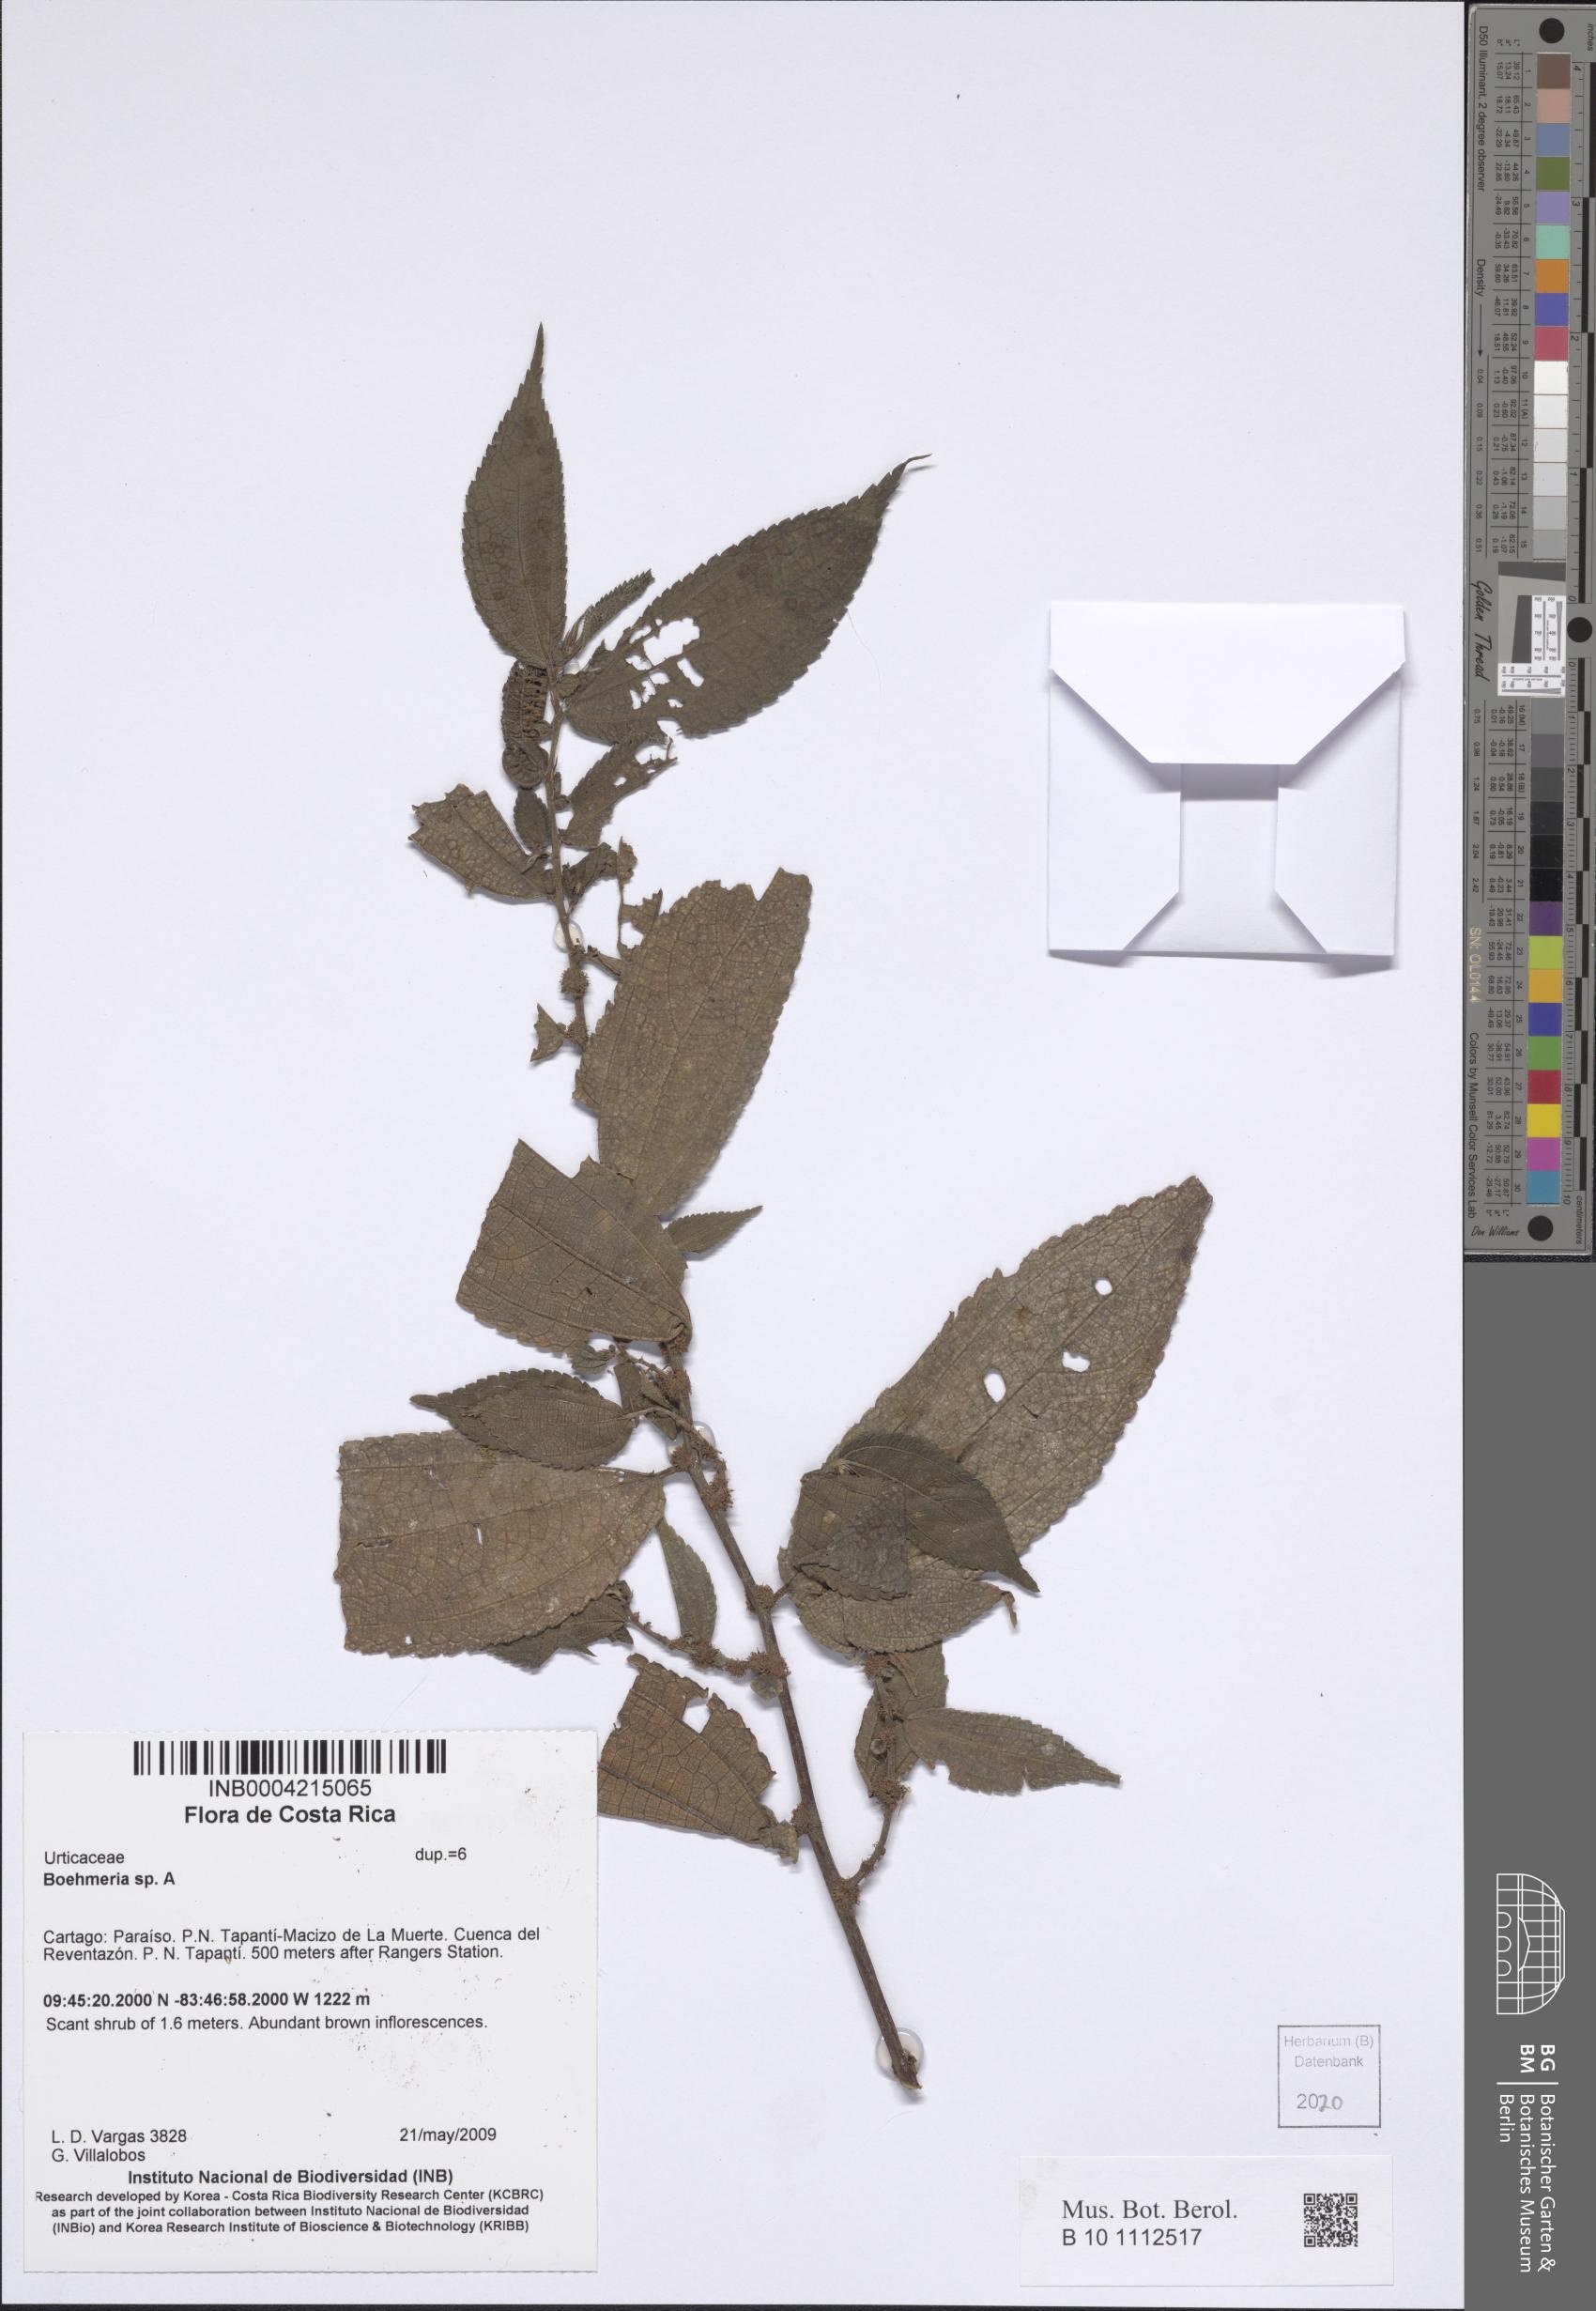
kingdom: Plantae
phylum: Tracheophyta
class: Magnoliopsida
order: Rosales
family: Urticaceae
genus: Boehmeria
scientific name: Boehmeria
